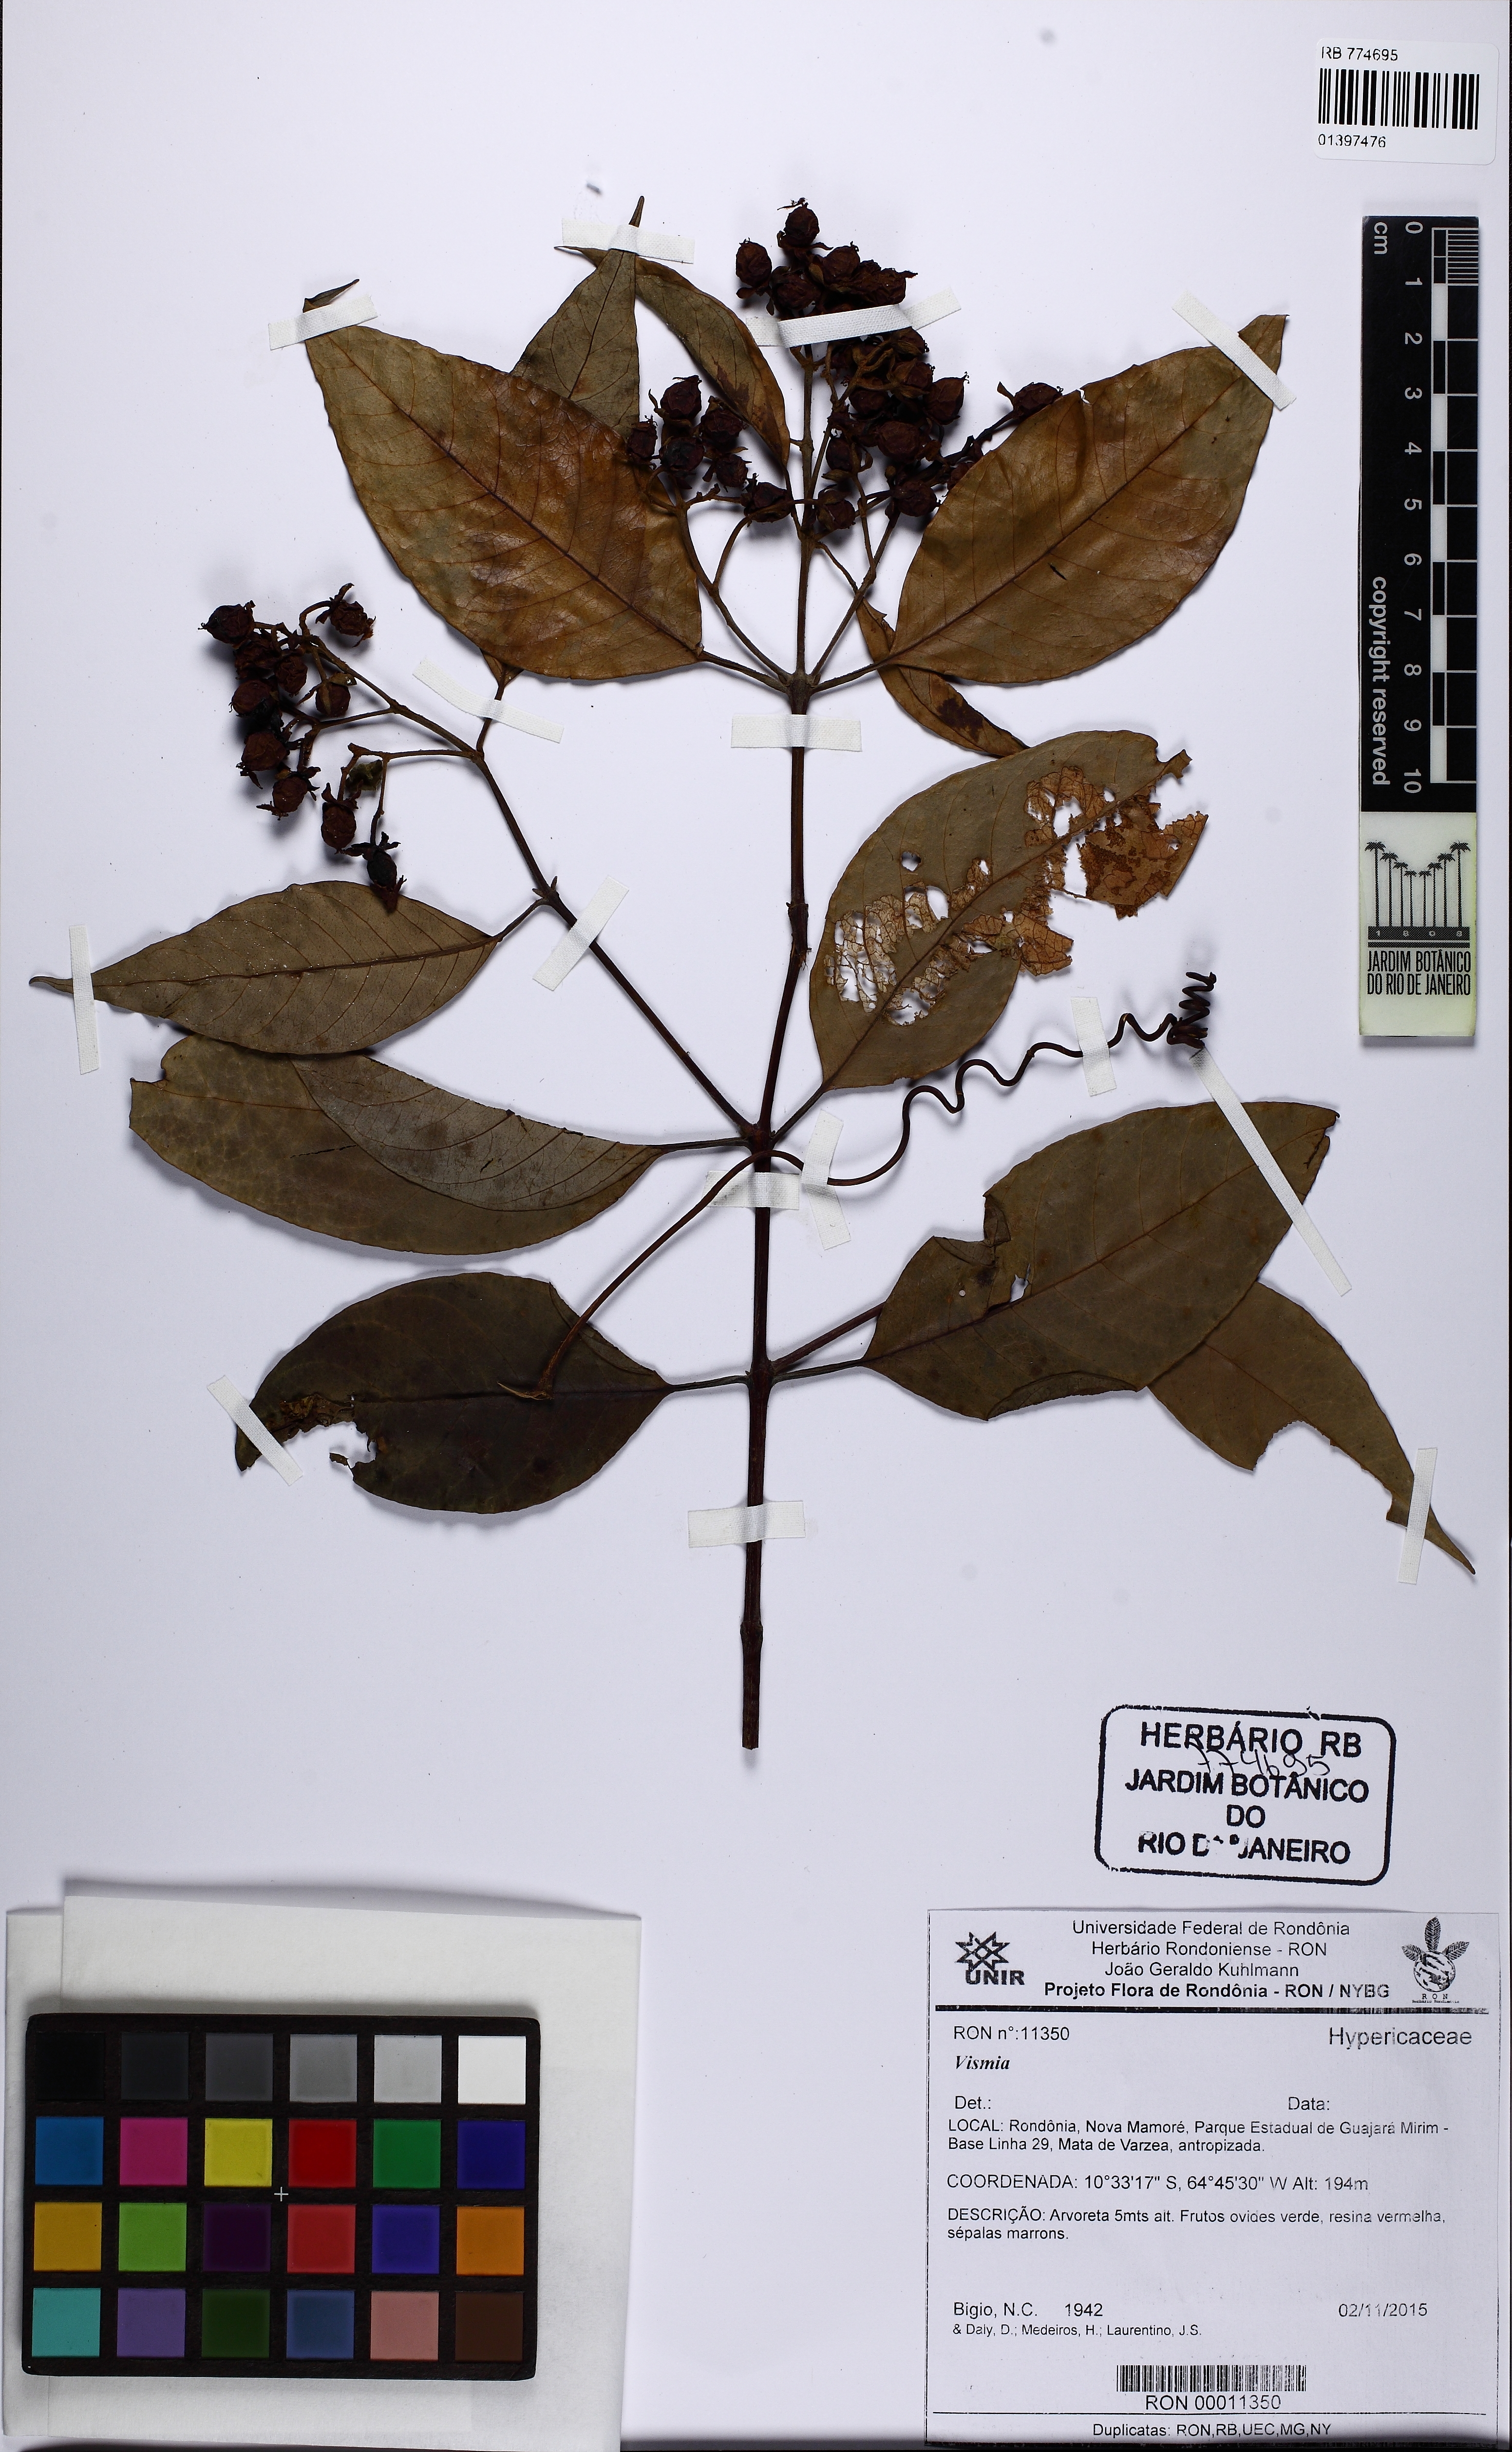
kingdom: Plantae
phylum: Tracheophyta
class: Magnoliopsida
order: Malpighiales
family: Hypericaceae
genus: Vismia
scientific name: Vismia
